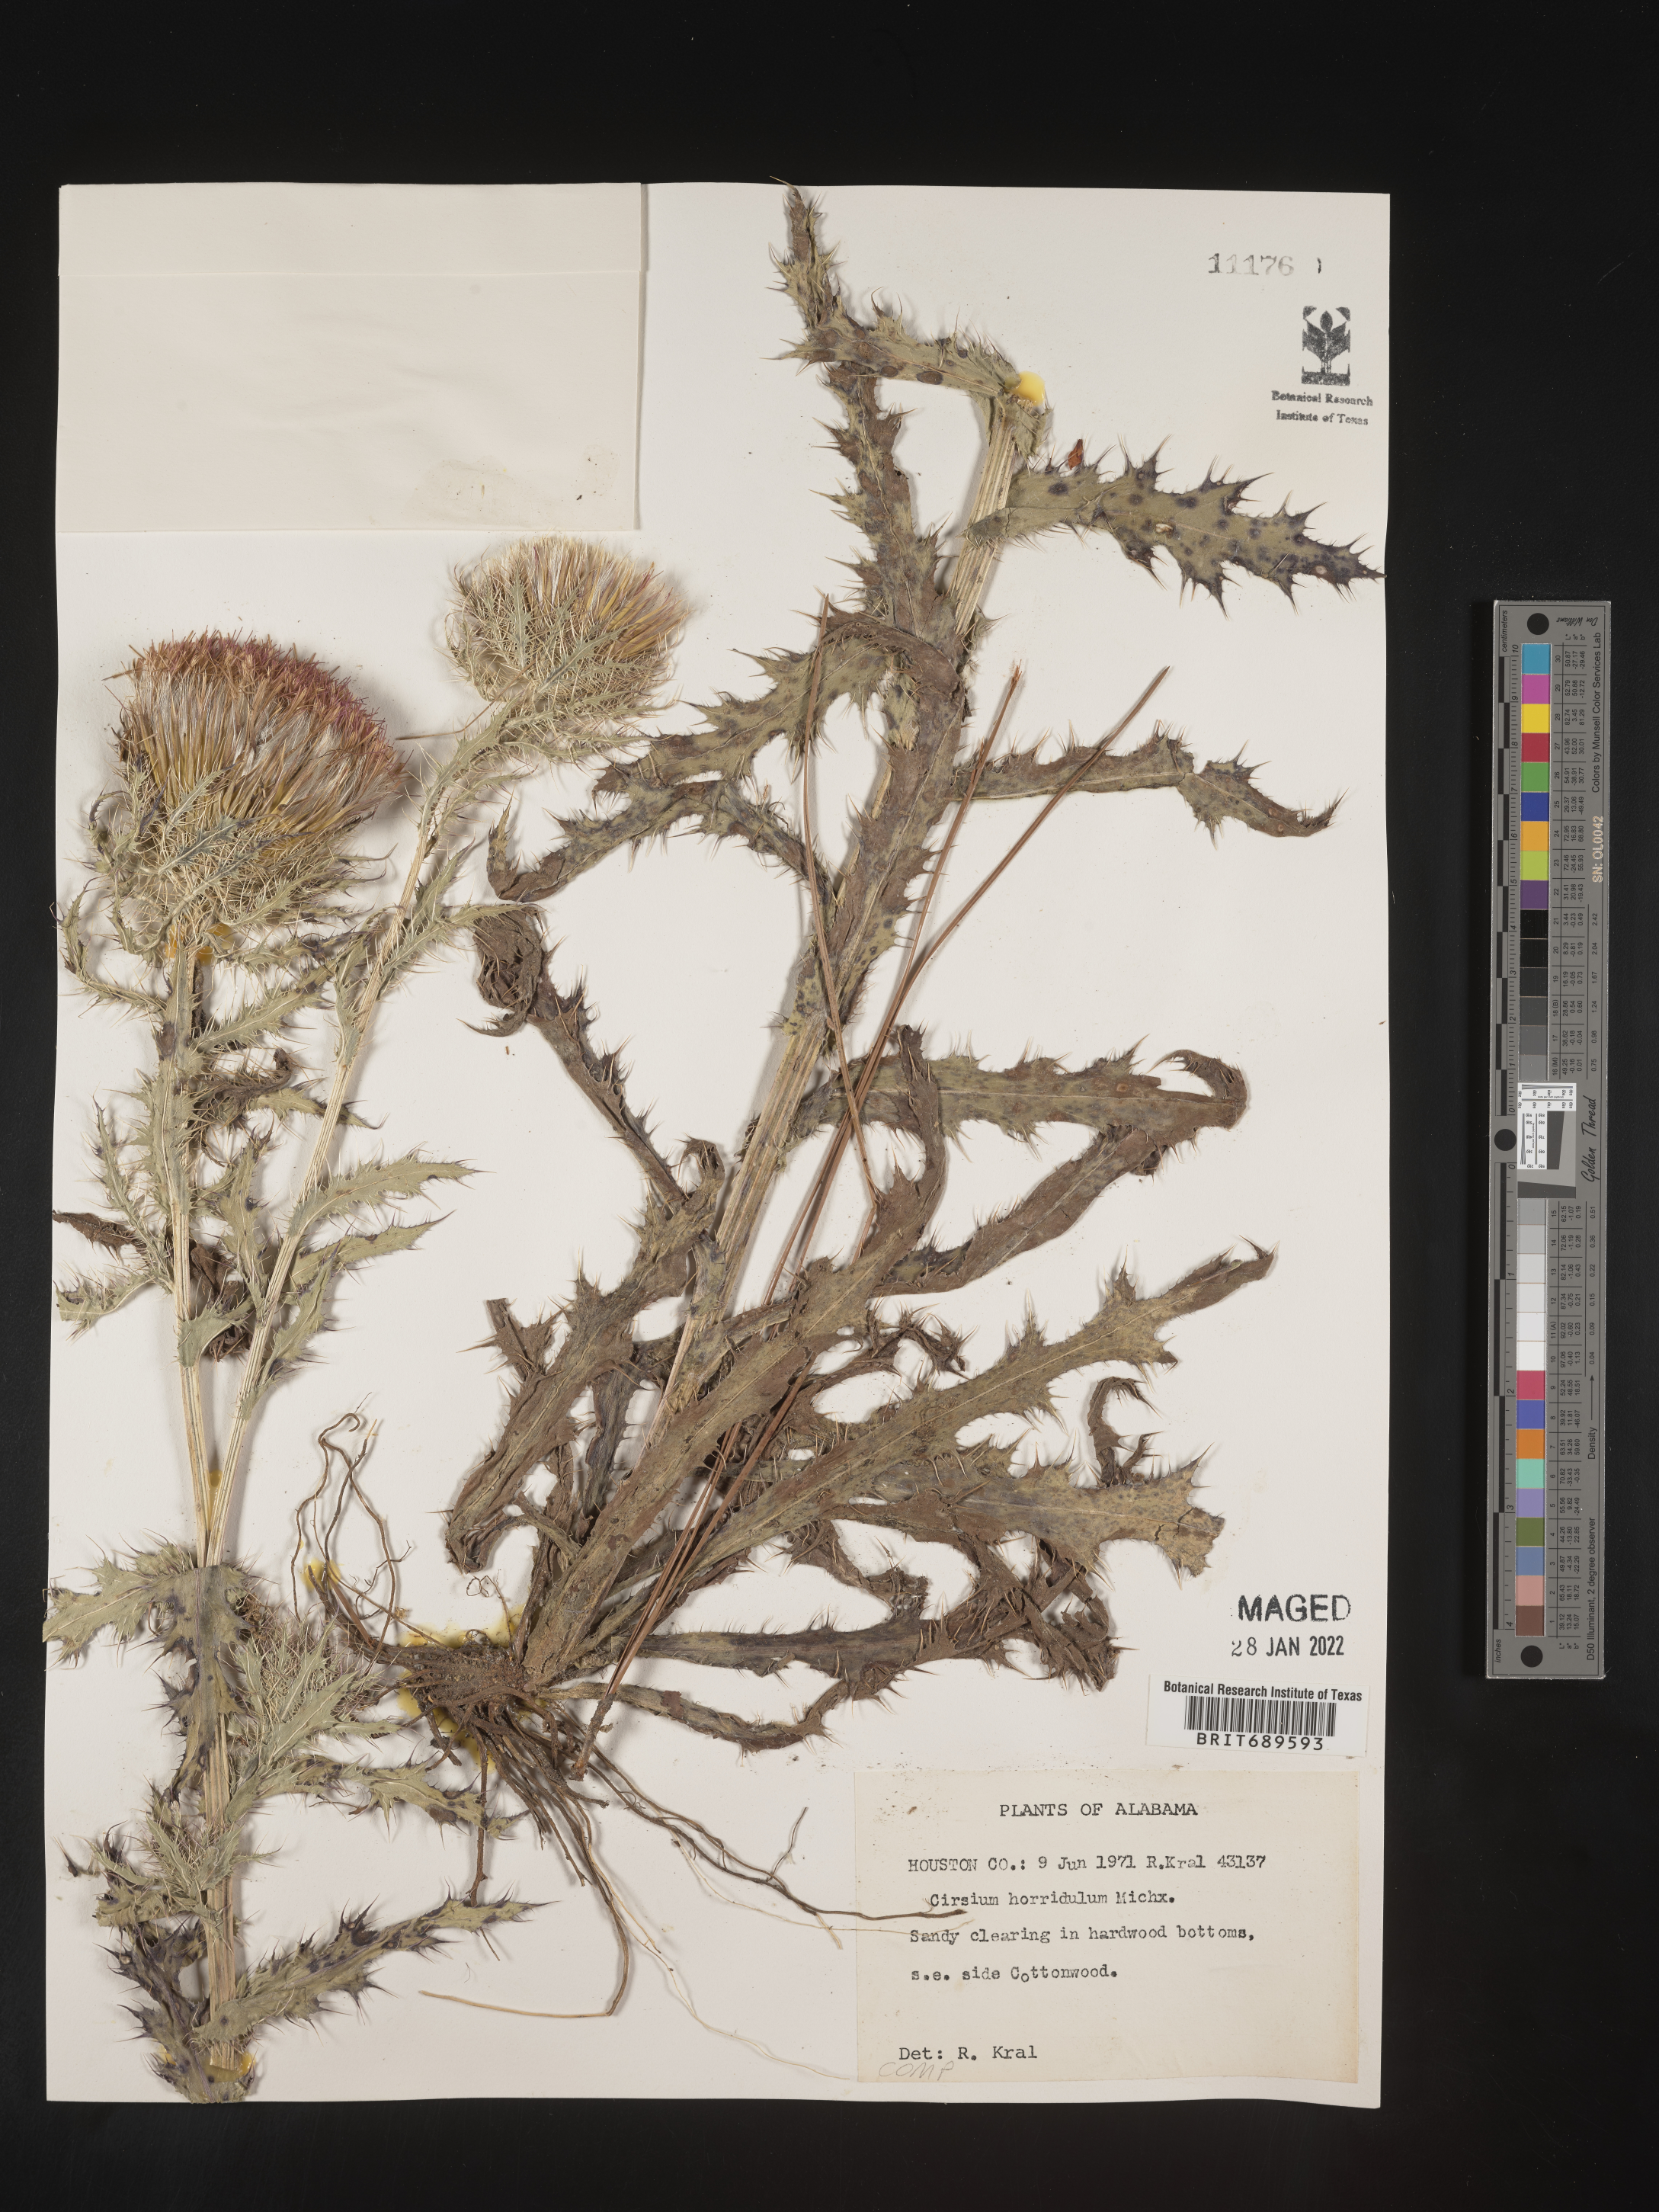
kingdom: Plantae
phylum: Tracheophyta
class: Magnoliopsida
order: Asterales
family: Asteraceae
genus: Cirsium
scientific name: Cirsium horridulum
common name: Bristly thistle
